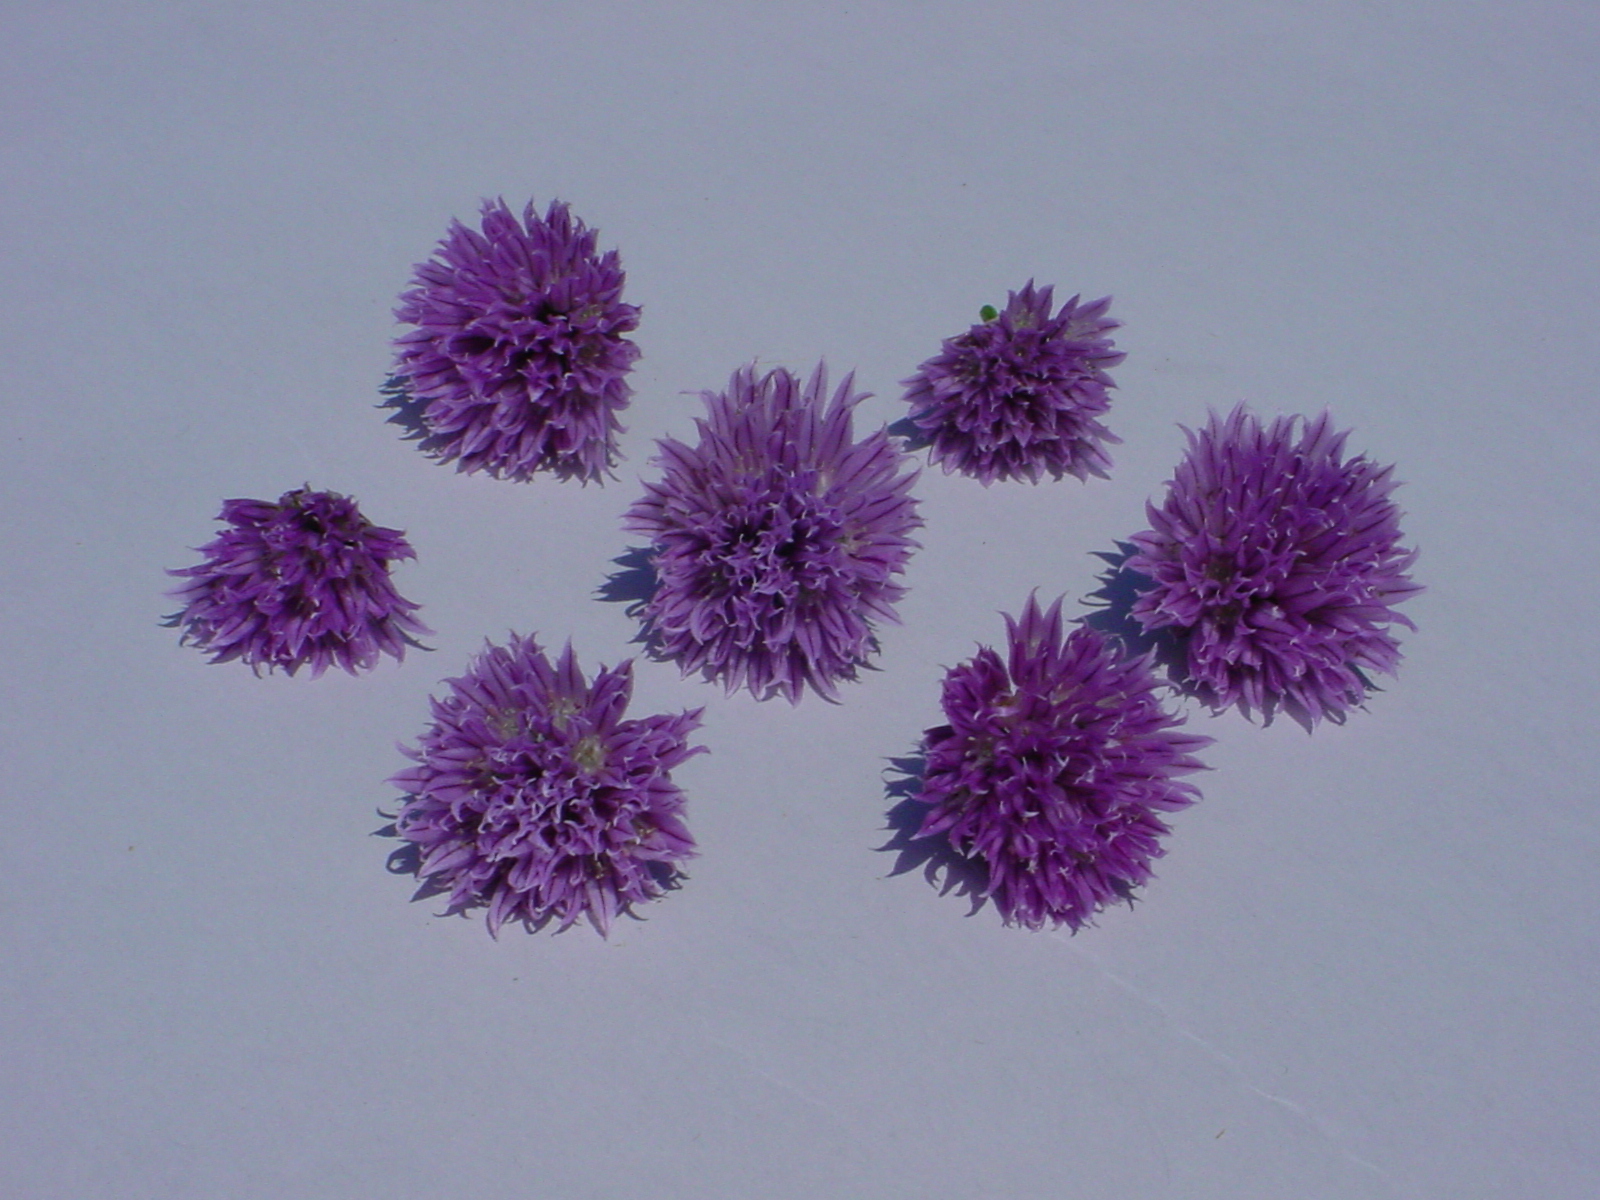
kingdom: Plantae
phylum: Tracheophyta
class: Liliopsida
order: Asparagales
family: Amaryllidaceae
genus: Allium
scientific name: Allium schoenoprasum
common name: Chives
